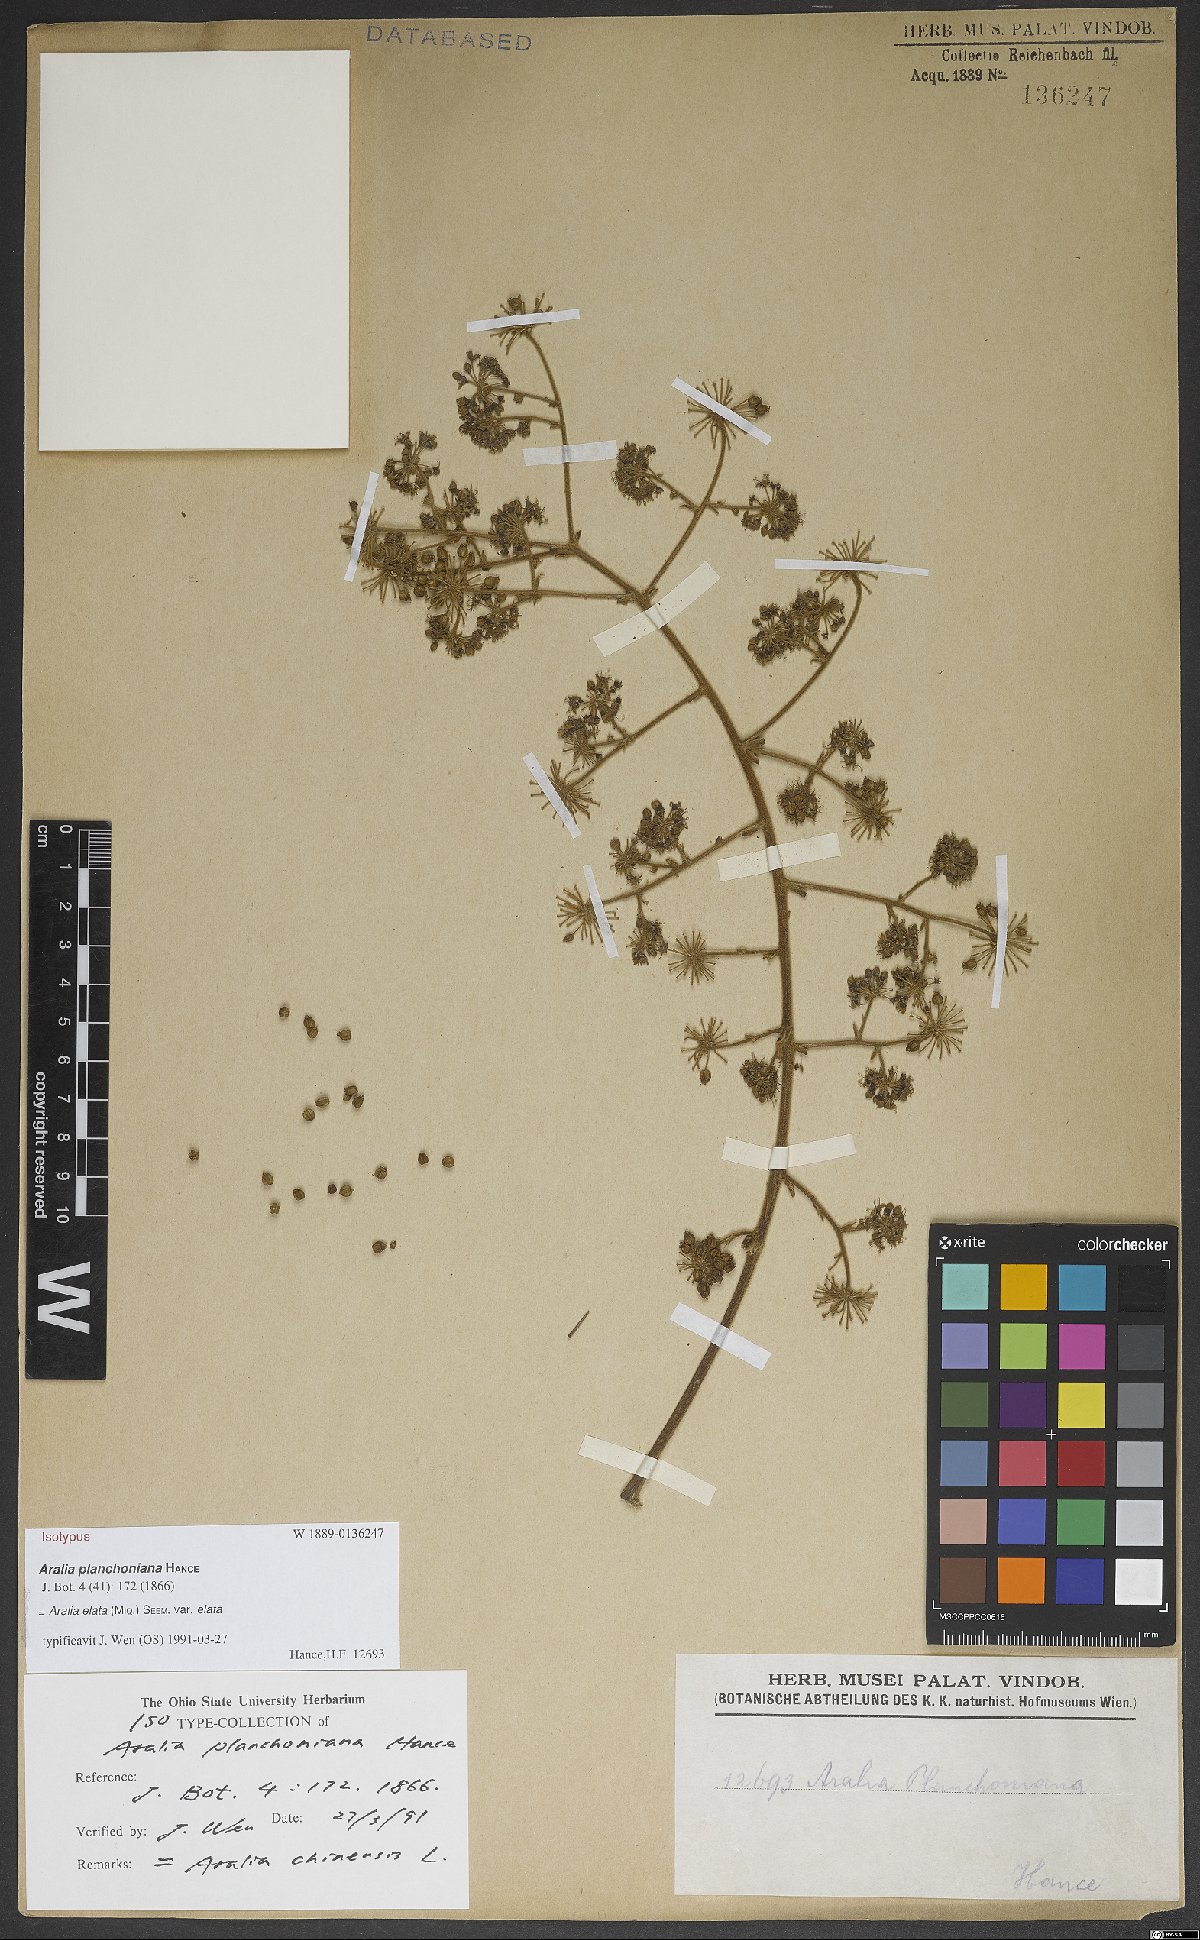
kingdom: Plantae
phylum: Tracheophyta
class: Magnoliopsida
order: Apiales
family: Araliaceae
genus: Aralia
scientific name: Aralia elata
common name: Japanese angelica-tree
